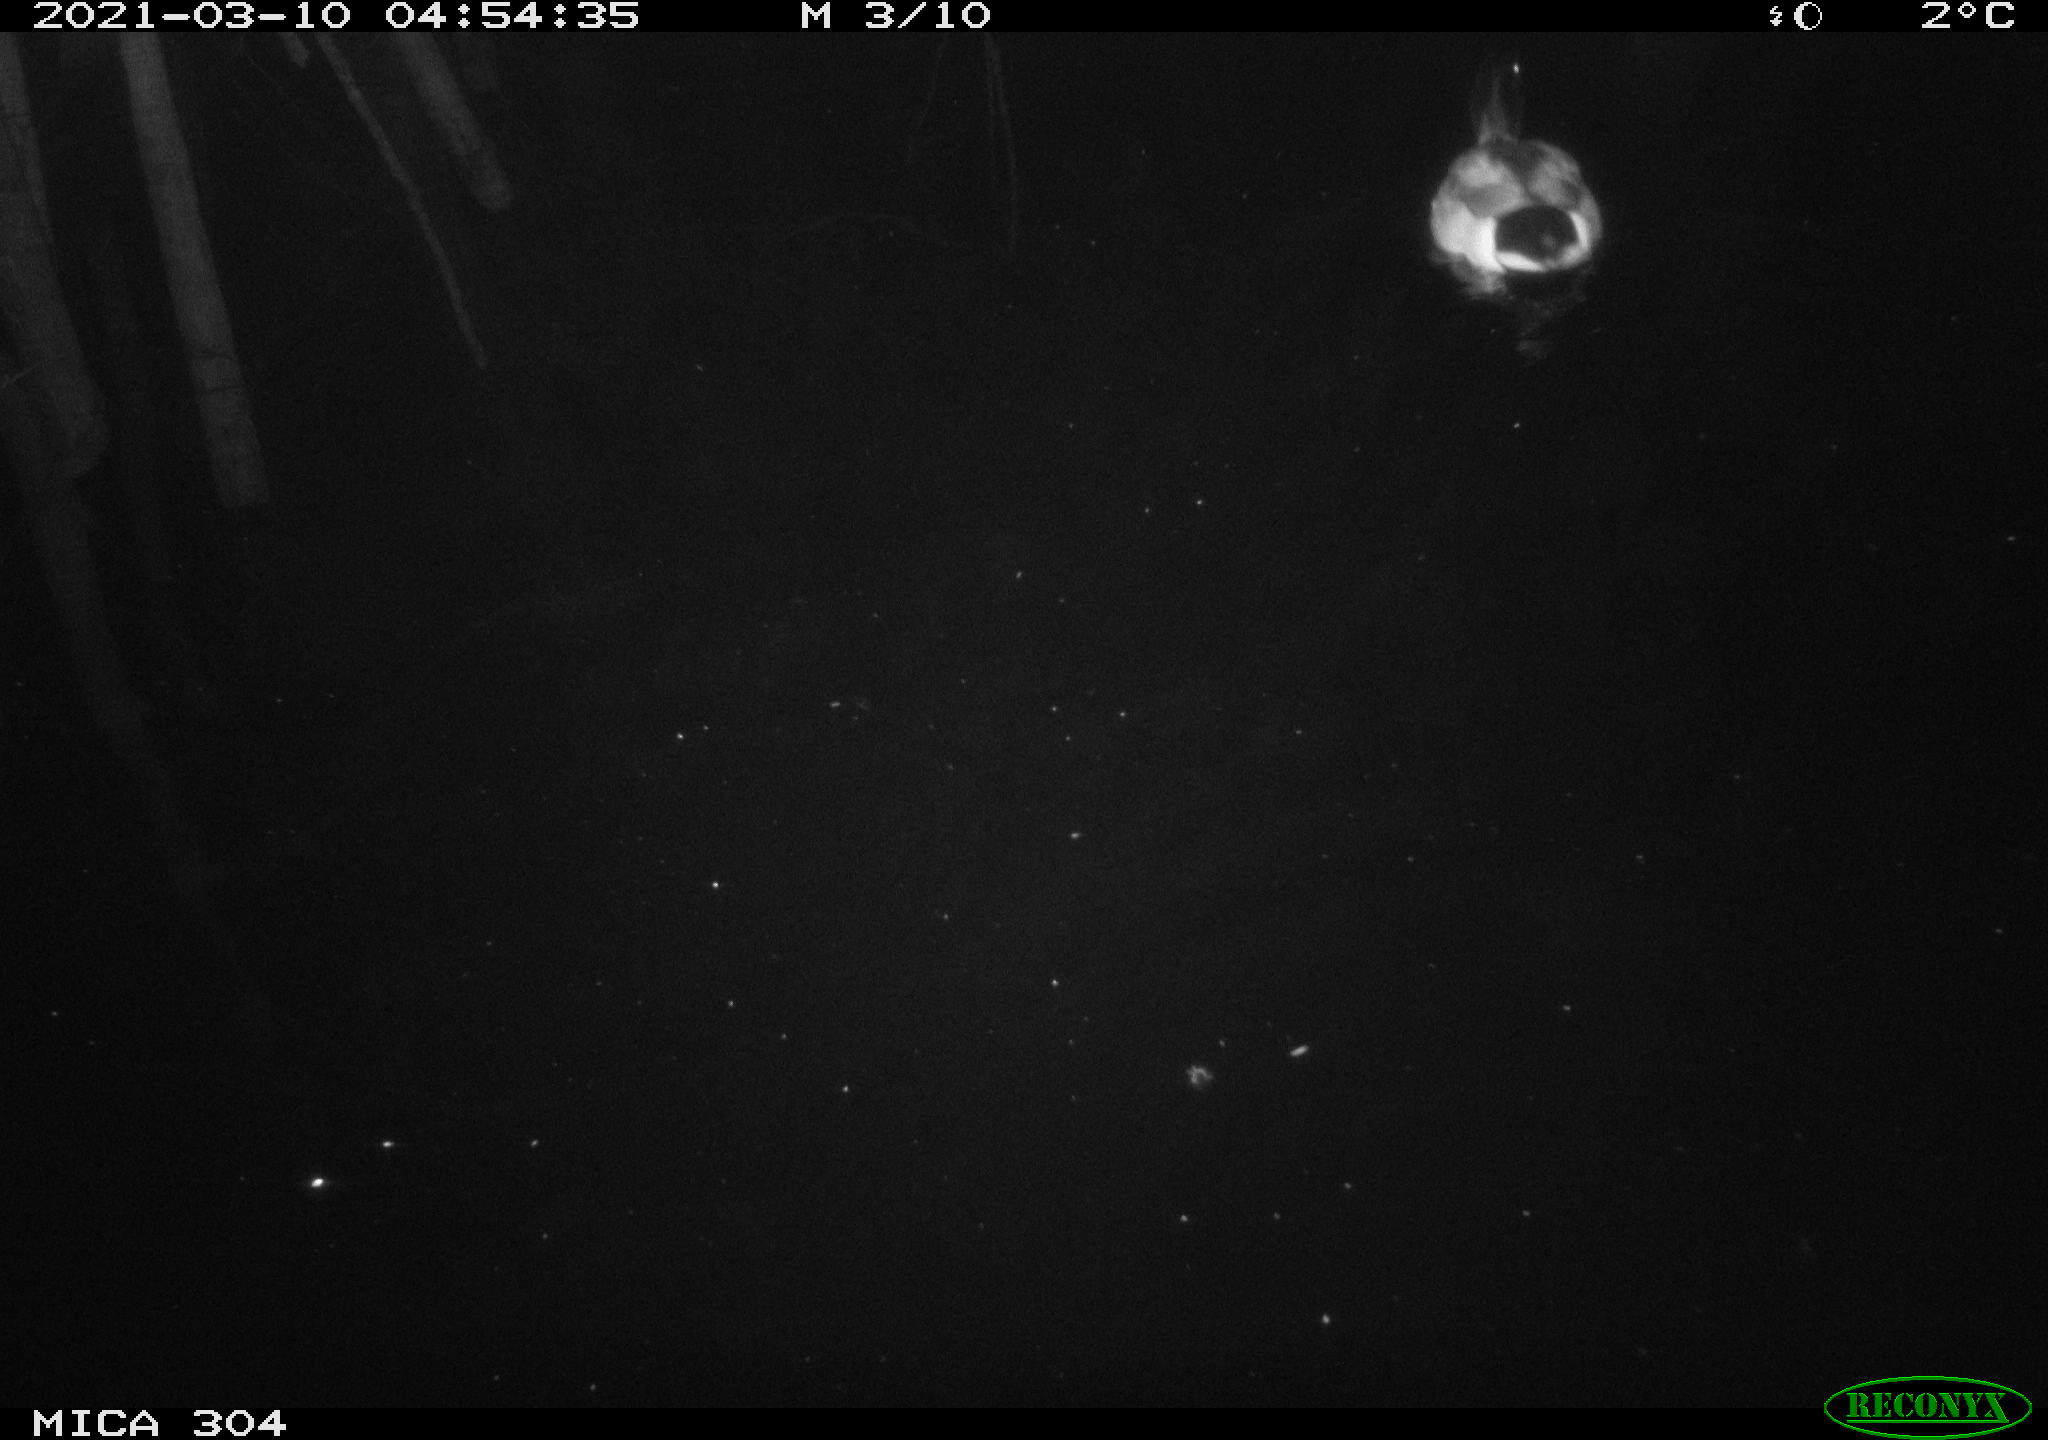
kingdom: Animalia
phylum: Chordata
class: Aves
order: Anseriformes
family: Anatidae
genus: Anas
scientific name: Anas platyrhynchos
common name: Mallard
